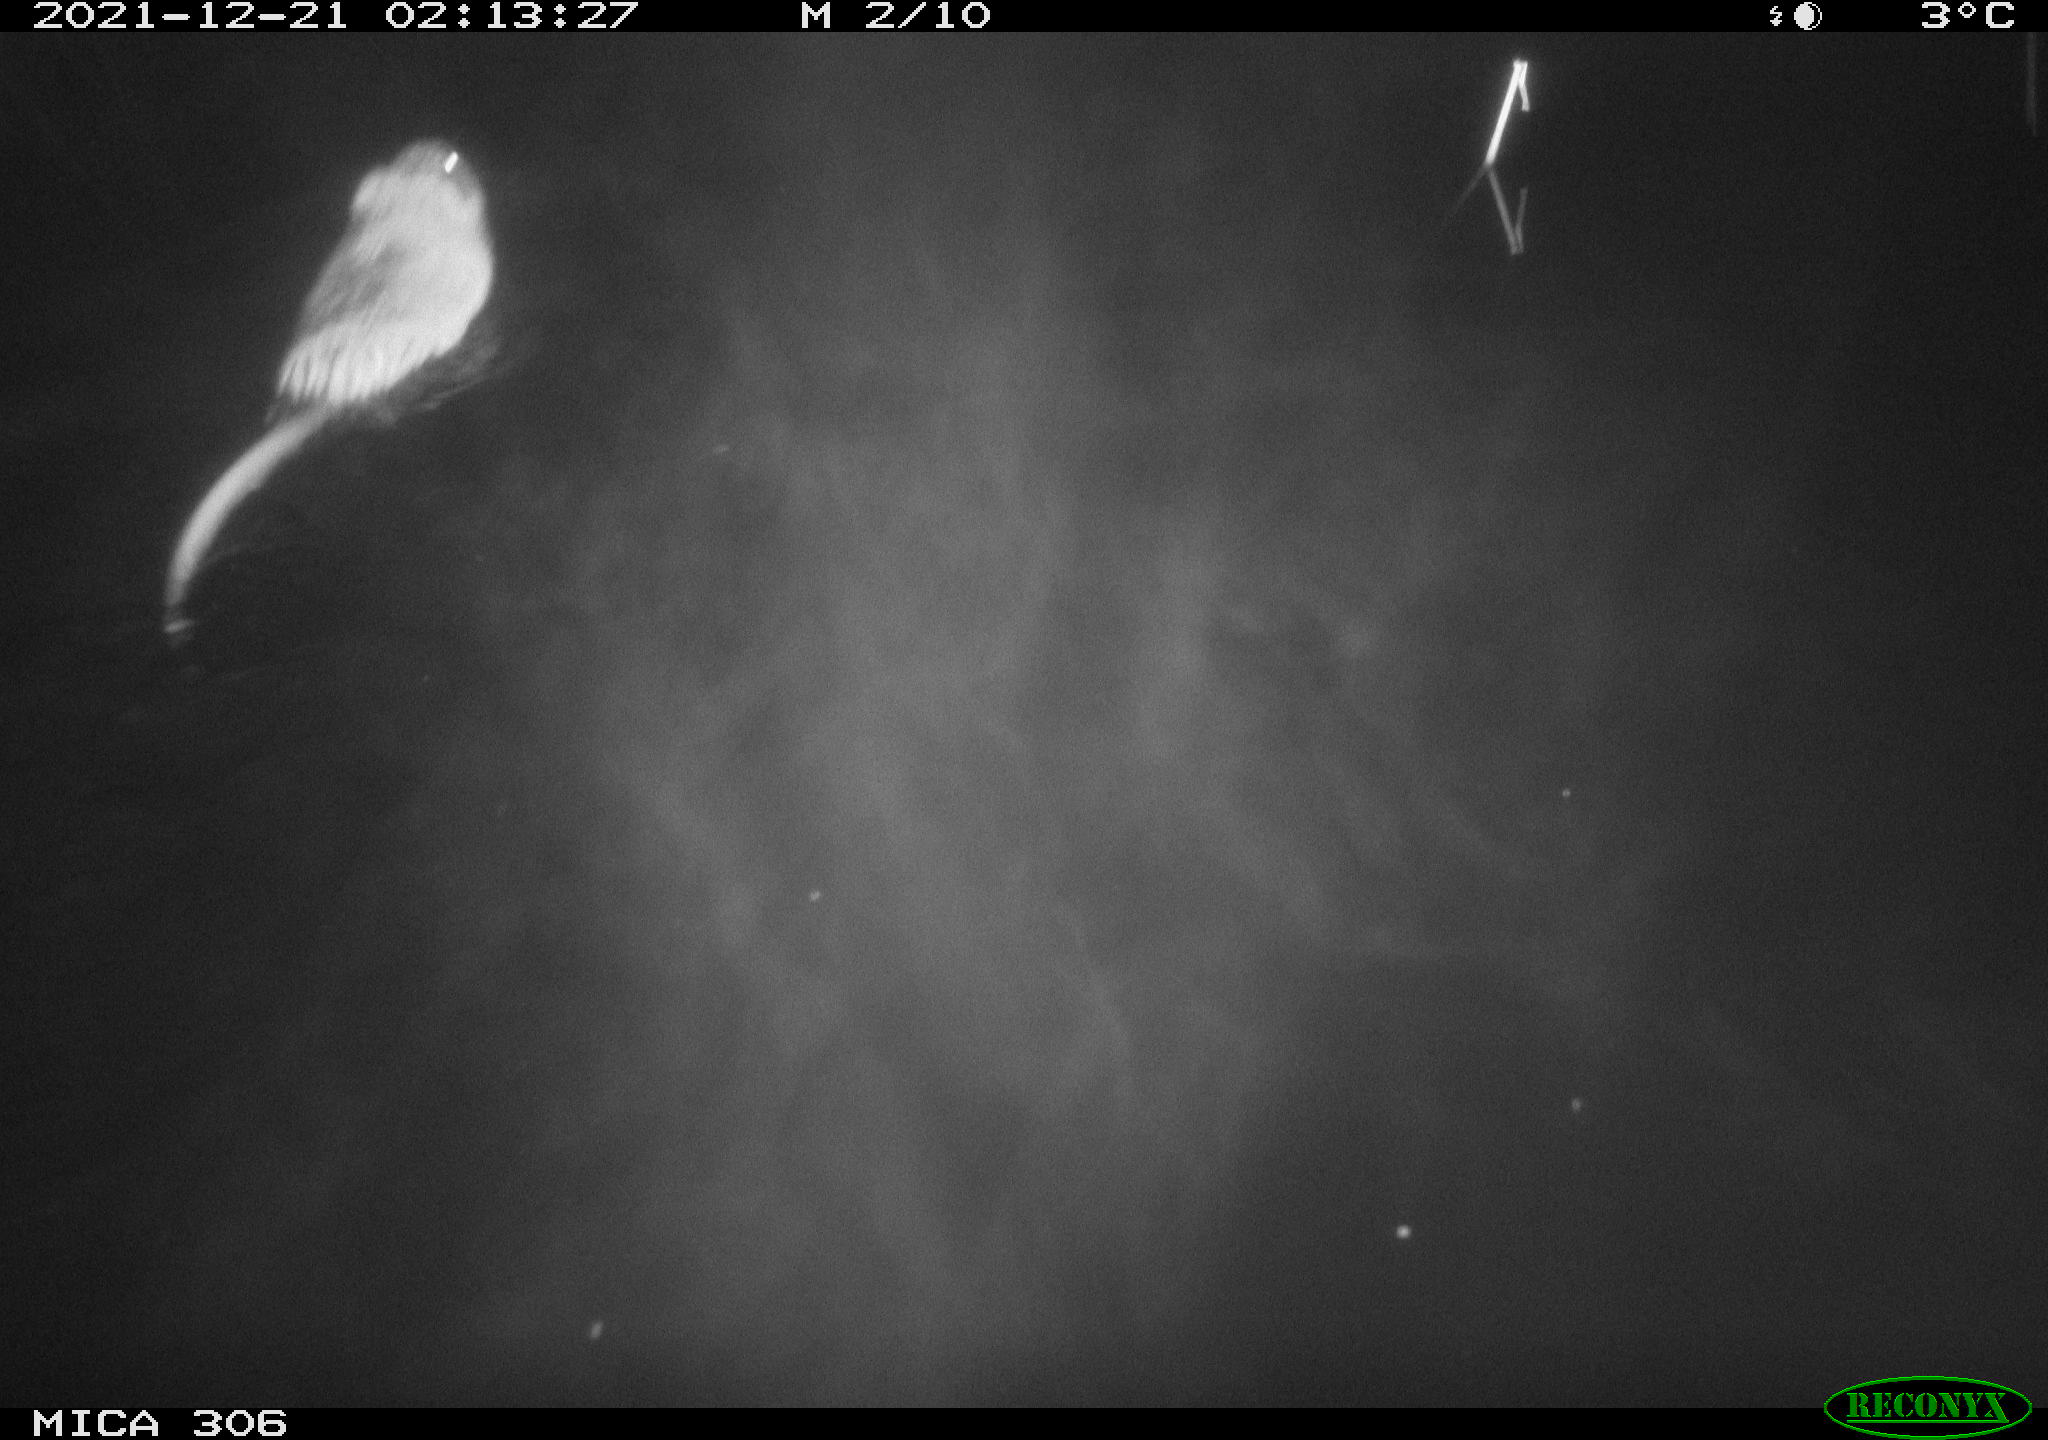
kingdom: Animalia
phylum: Chordata
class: Mammalia
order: Rodentia
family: Cricetidae
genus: Ondatra
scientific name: Ondatra zibethicus
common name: Muskrat
